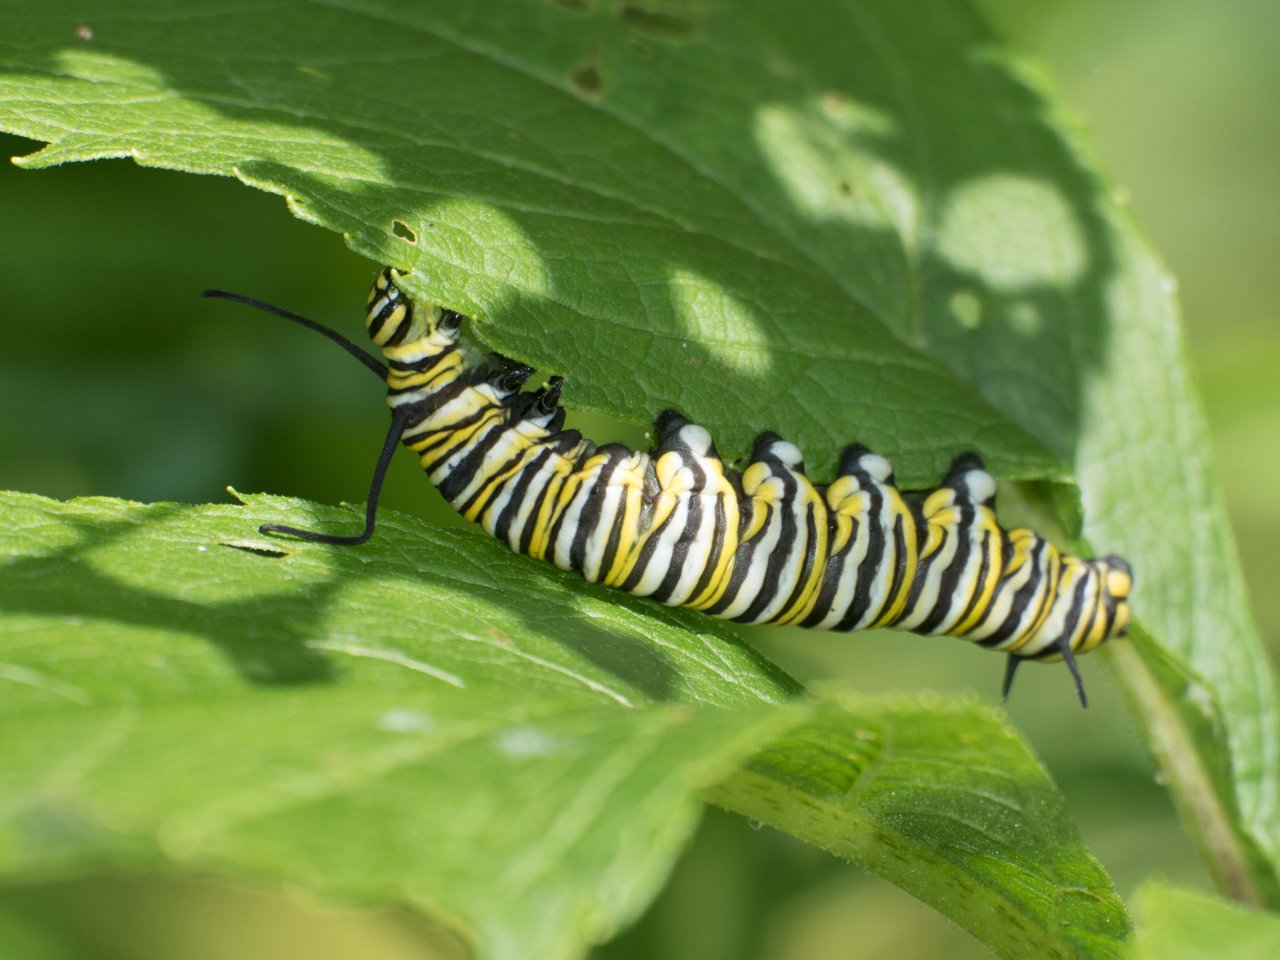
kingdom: Animalia
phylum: Arthropoda
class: Insecta
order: Lepidoptera
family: Nymphalidae
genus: Danaus
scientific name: Danaus plexippus
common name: Monarch
